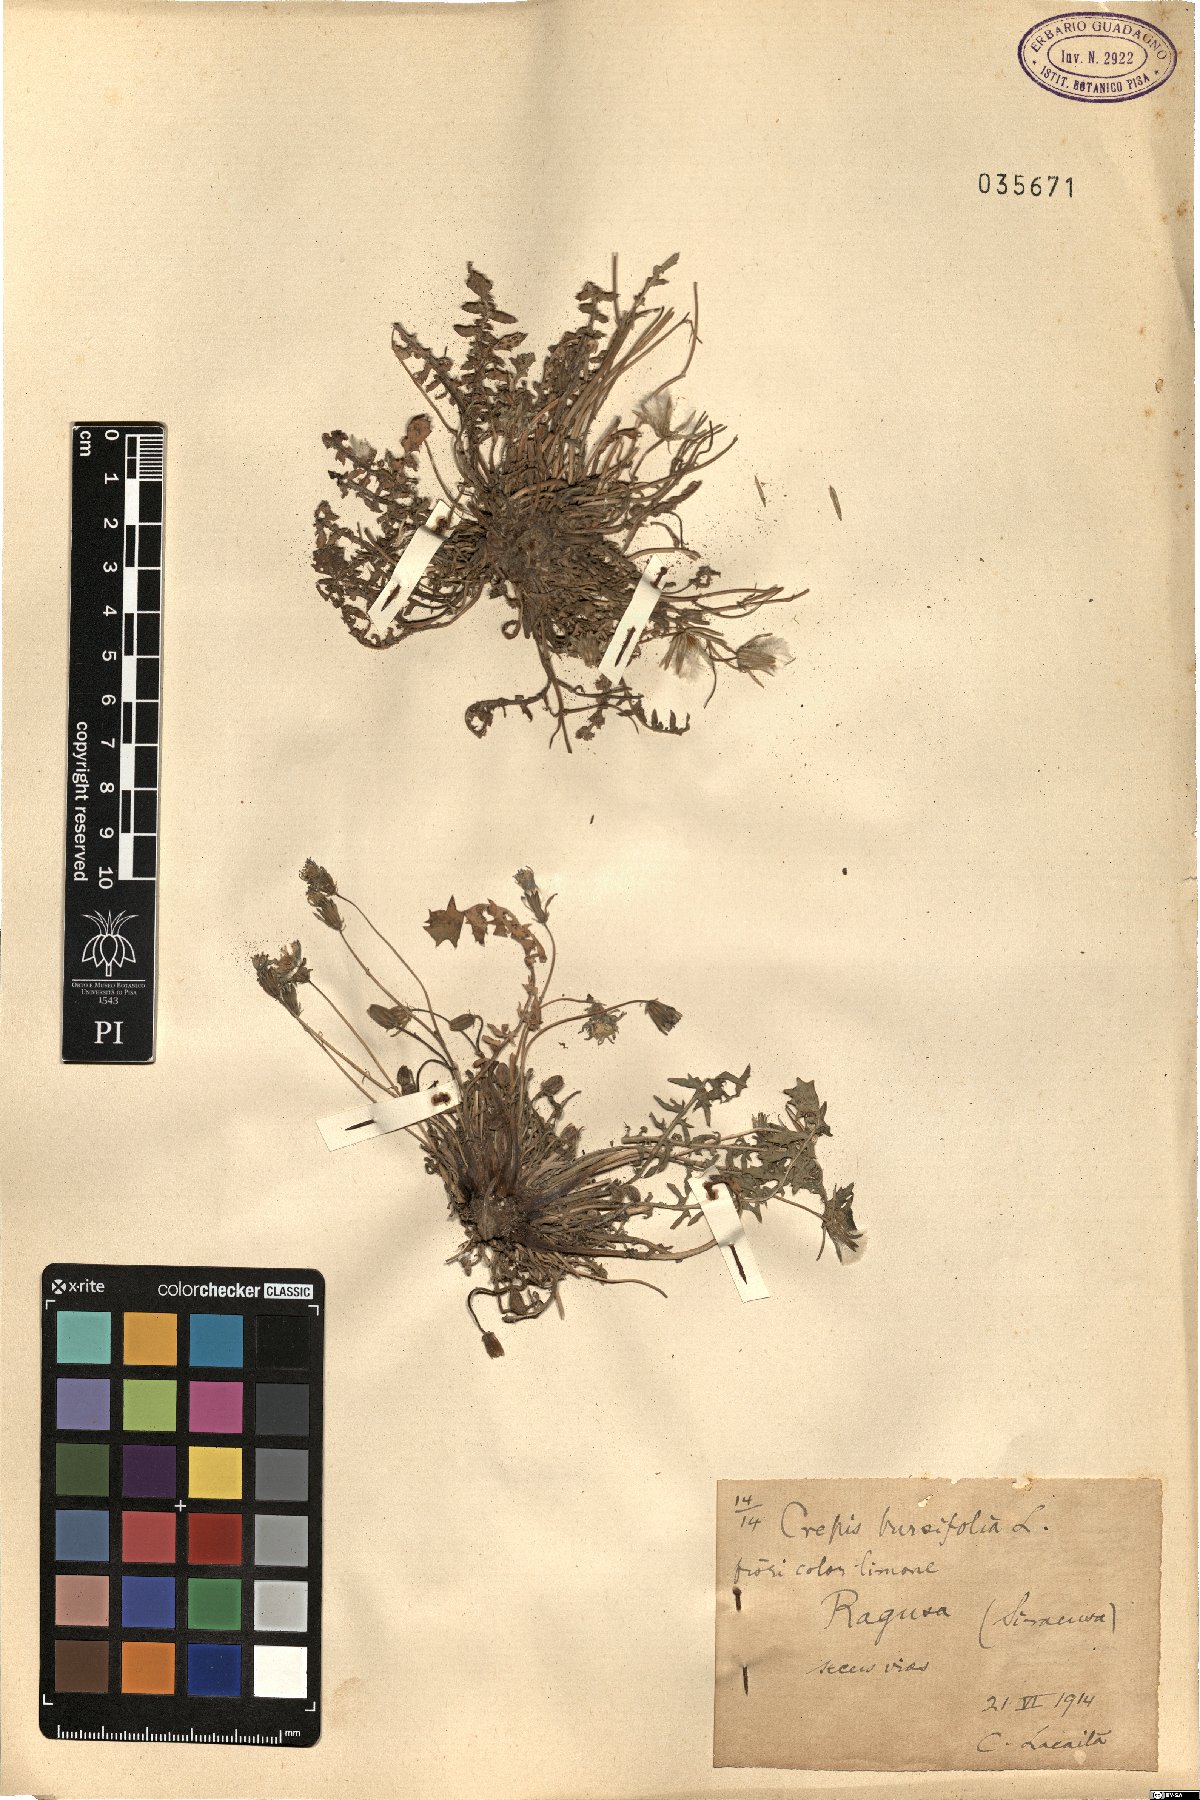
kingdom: Plantae
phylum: Tracheophyta
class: Magnoliopsida
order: Asterales
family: Asteraceae
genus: Crepis
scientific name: Crepis bursifolia
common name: Italian hawksbeard
